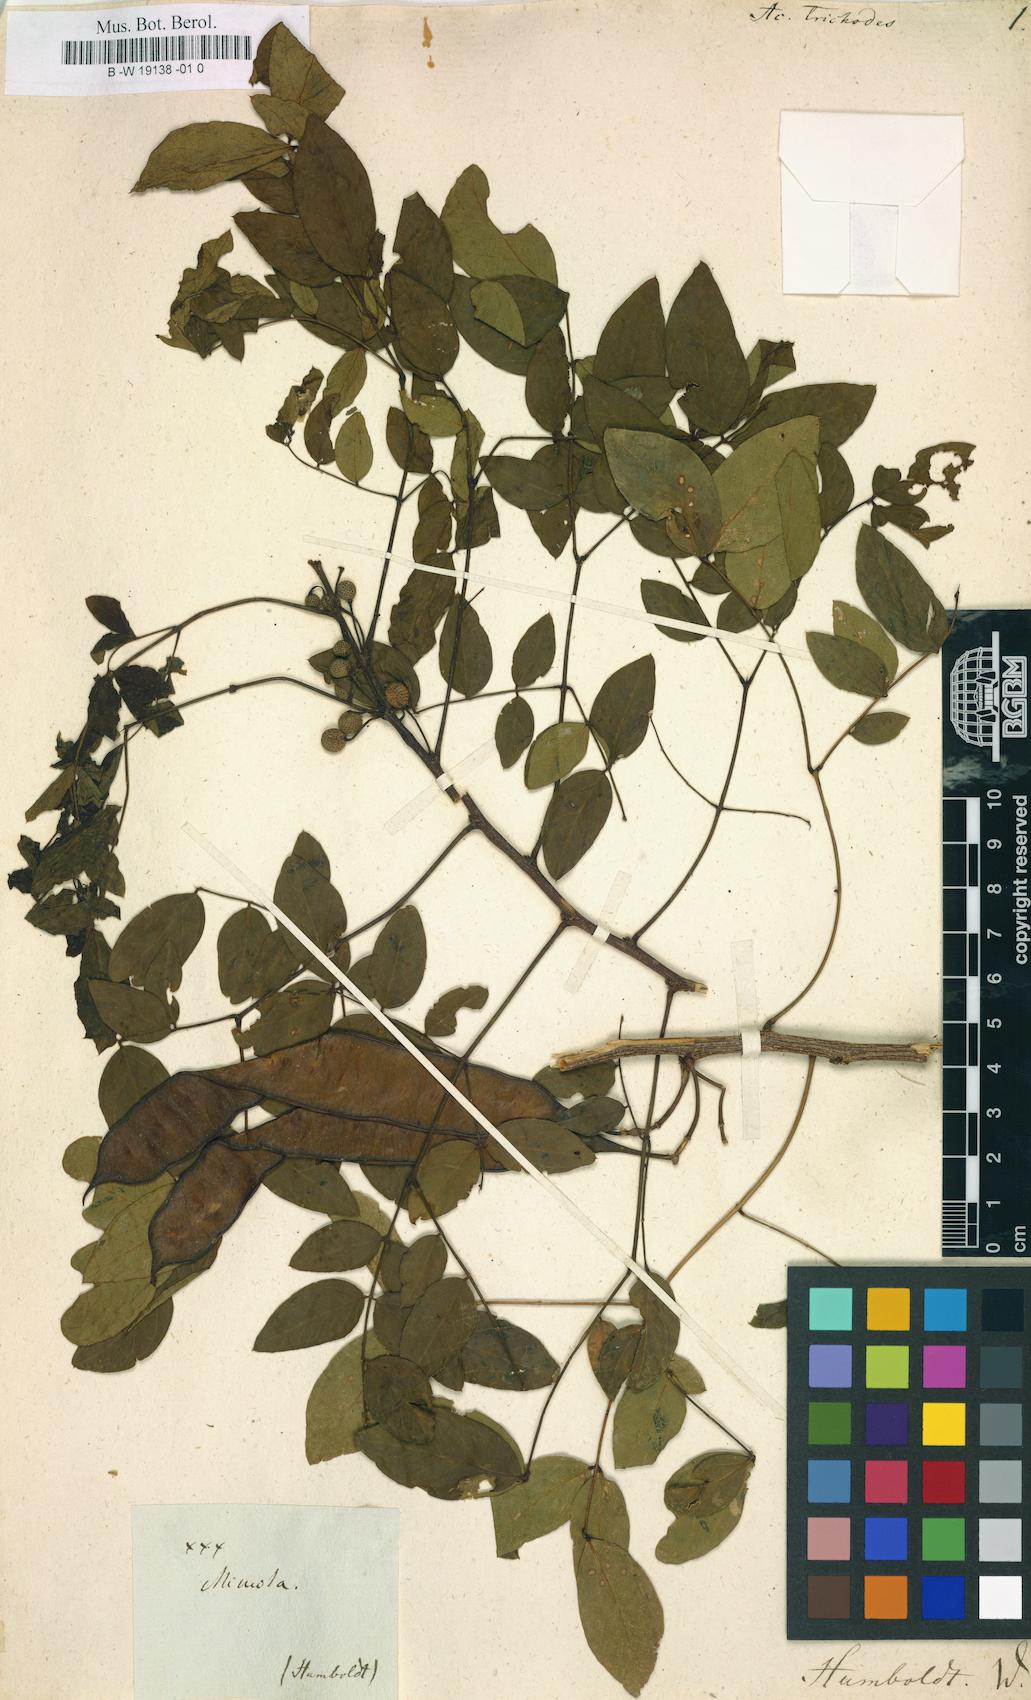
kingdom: Plantae
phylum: Tracheophyta
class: Magnoliopsida
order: Fabales
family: Fabaceae
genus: Leucaena
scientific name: Leucaena trichodes
